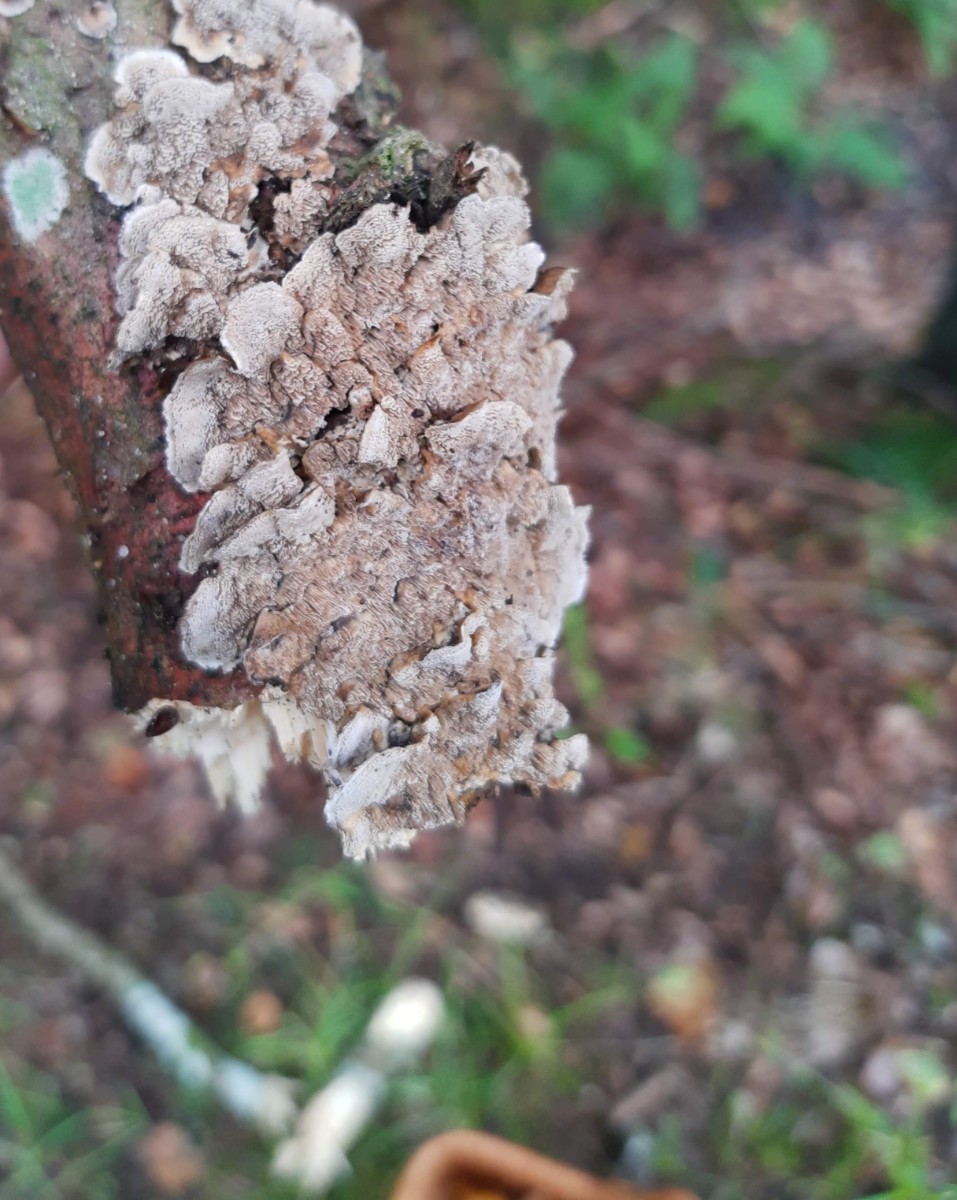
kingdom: Fungi
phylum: Basidiomycota
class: Agaricomycetes
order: Hymenochaetales
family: Hymenochaetaceae
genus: Mensularia
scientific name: Mensularia nodulosa
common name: bøge-spejlporesvamp
